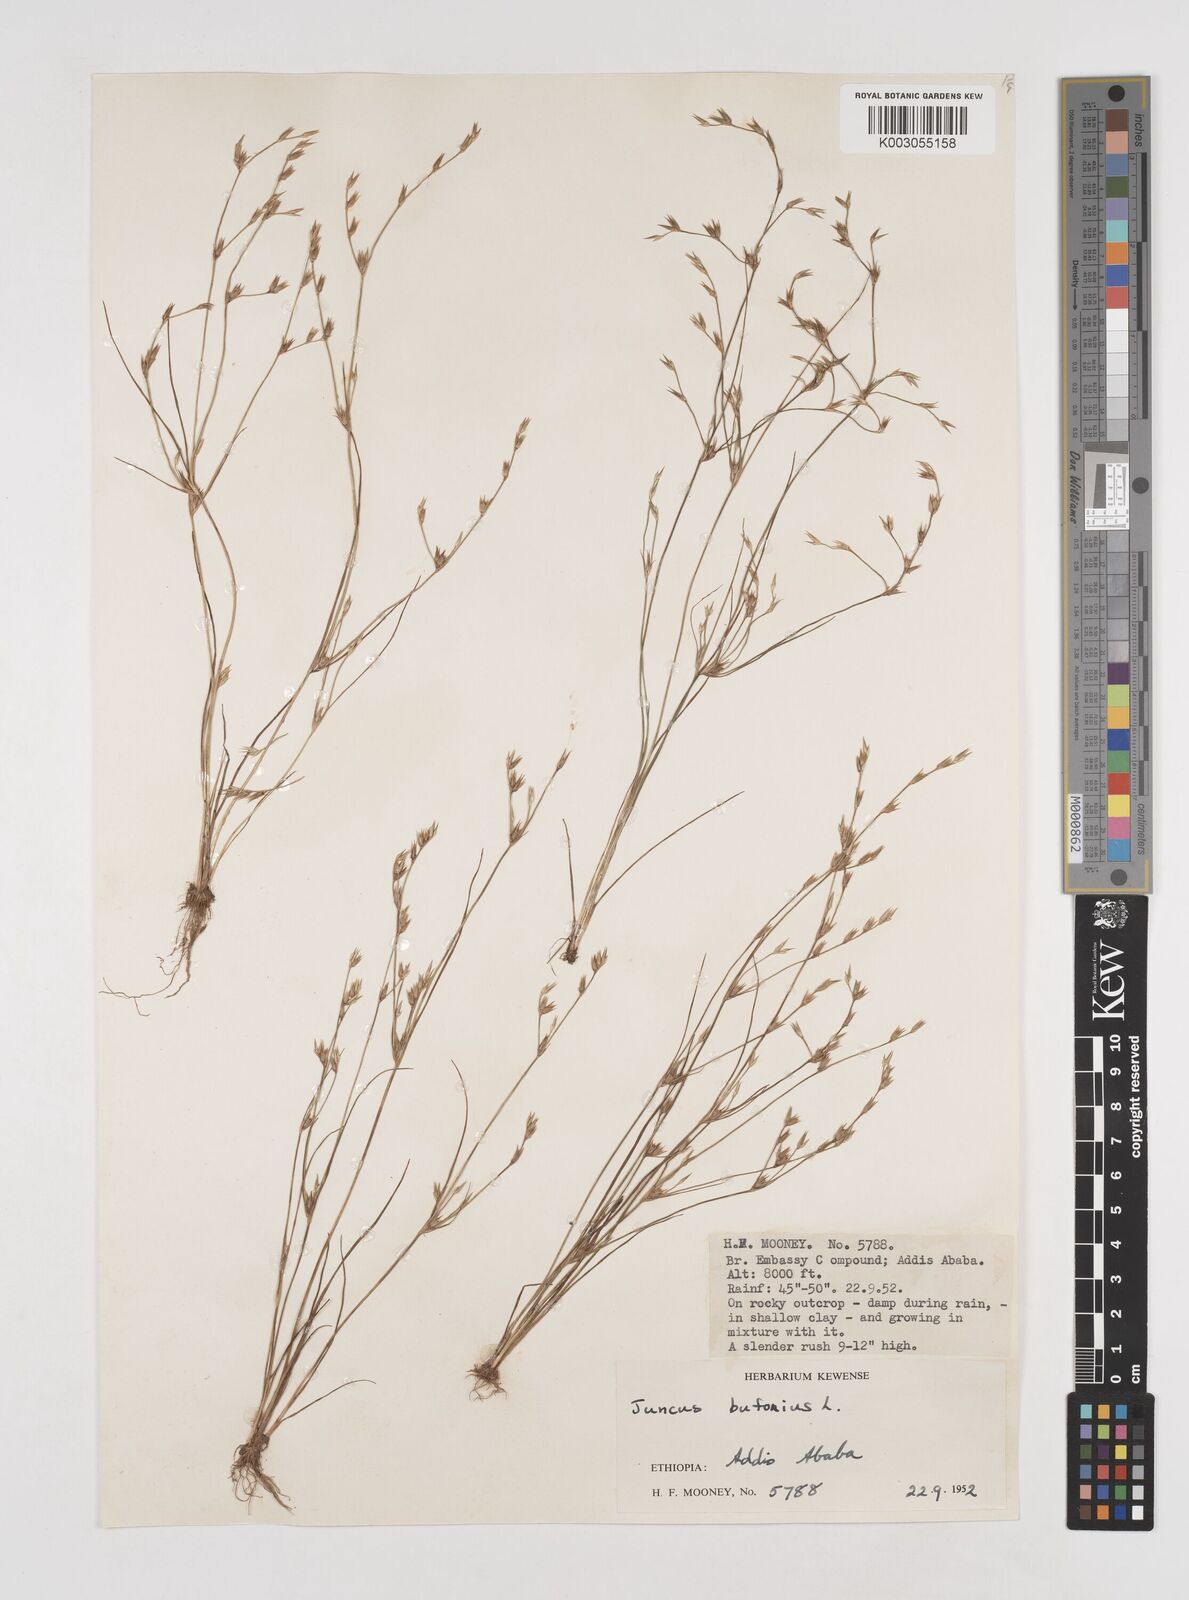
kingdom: Plantae
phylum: Tracheophyta
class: Liliopsida
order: Poales
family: Juncaceae
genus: Juncus
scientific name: Juncus bufonius
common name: Toad rush
